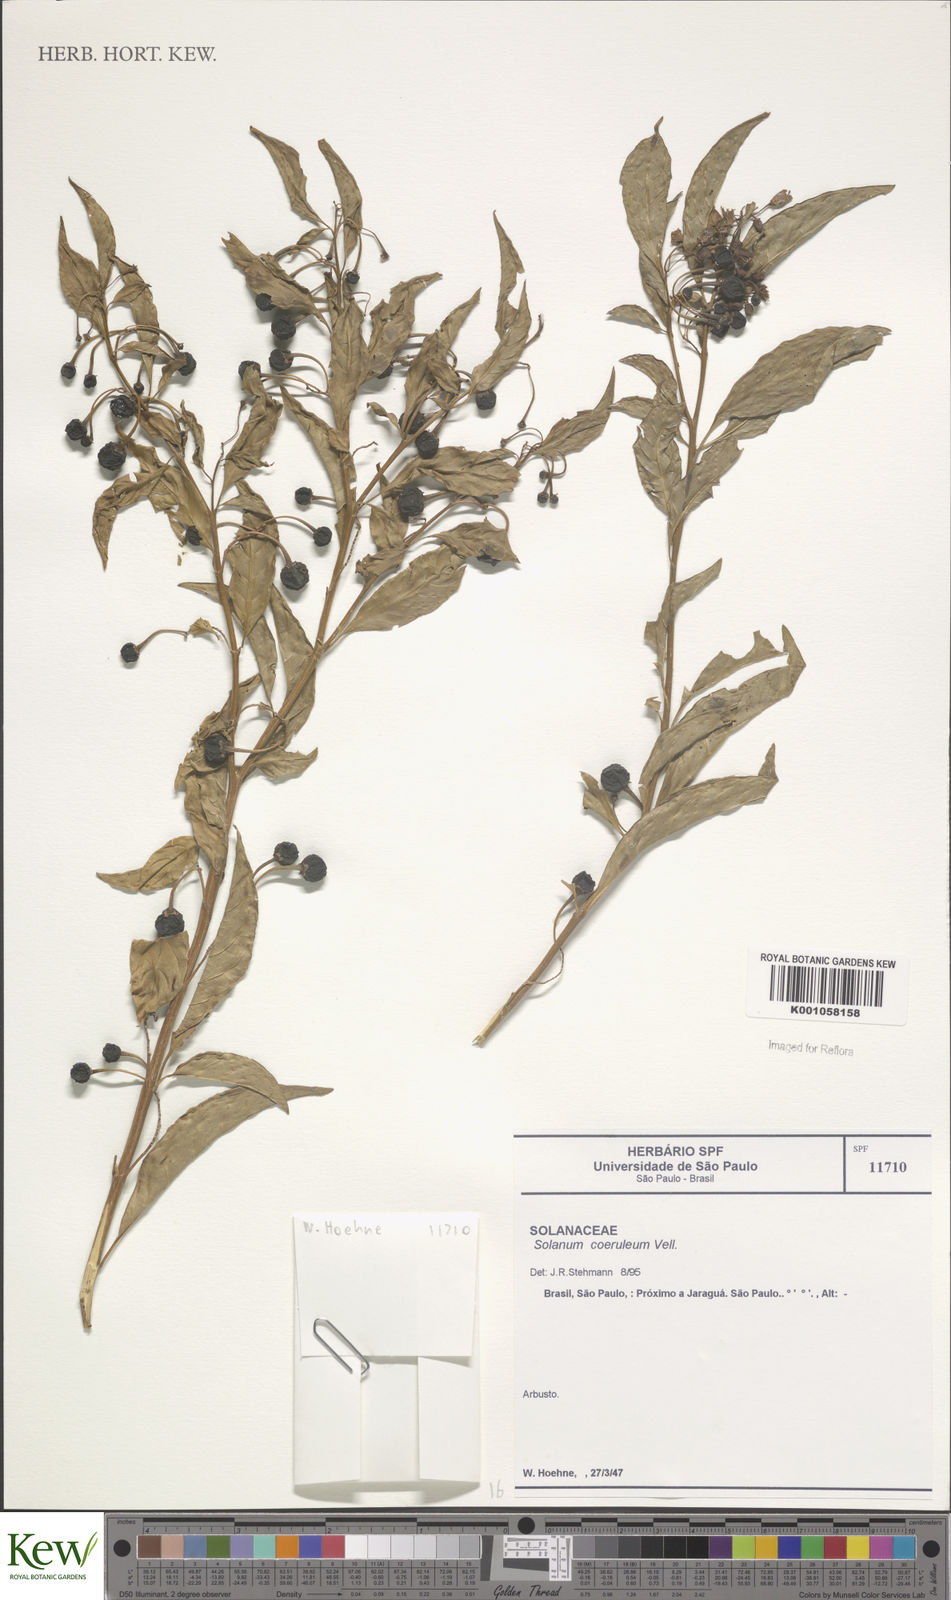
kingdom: Plantae
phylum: Tracheophyta
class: Magnoliopsida
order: Solanales
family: Solanaceae
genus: Solanum
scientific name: Solanum cyanocarphium
